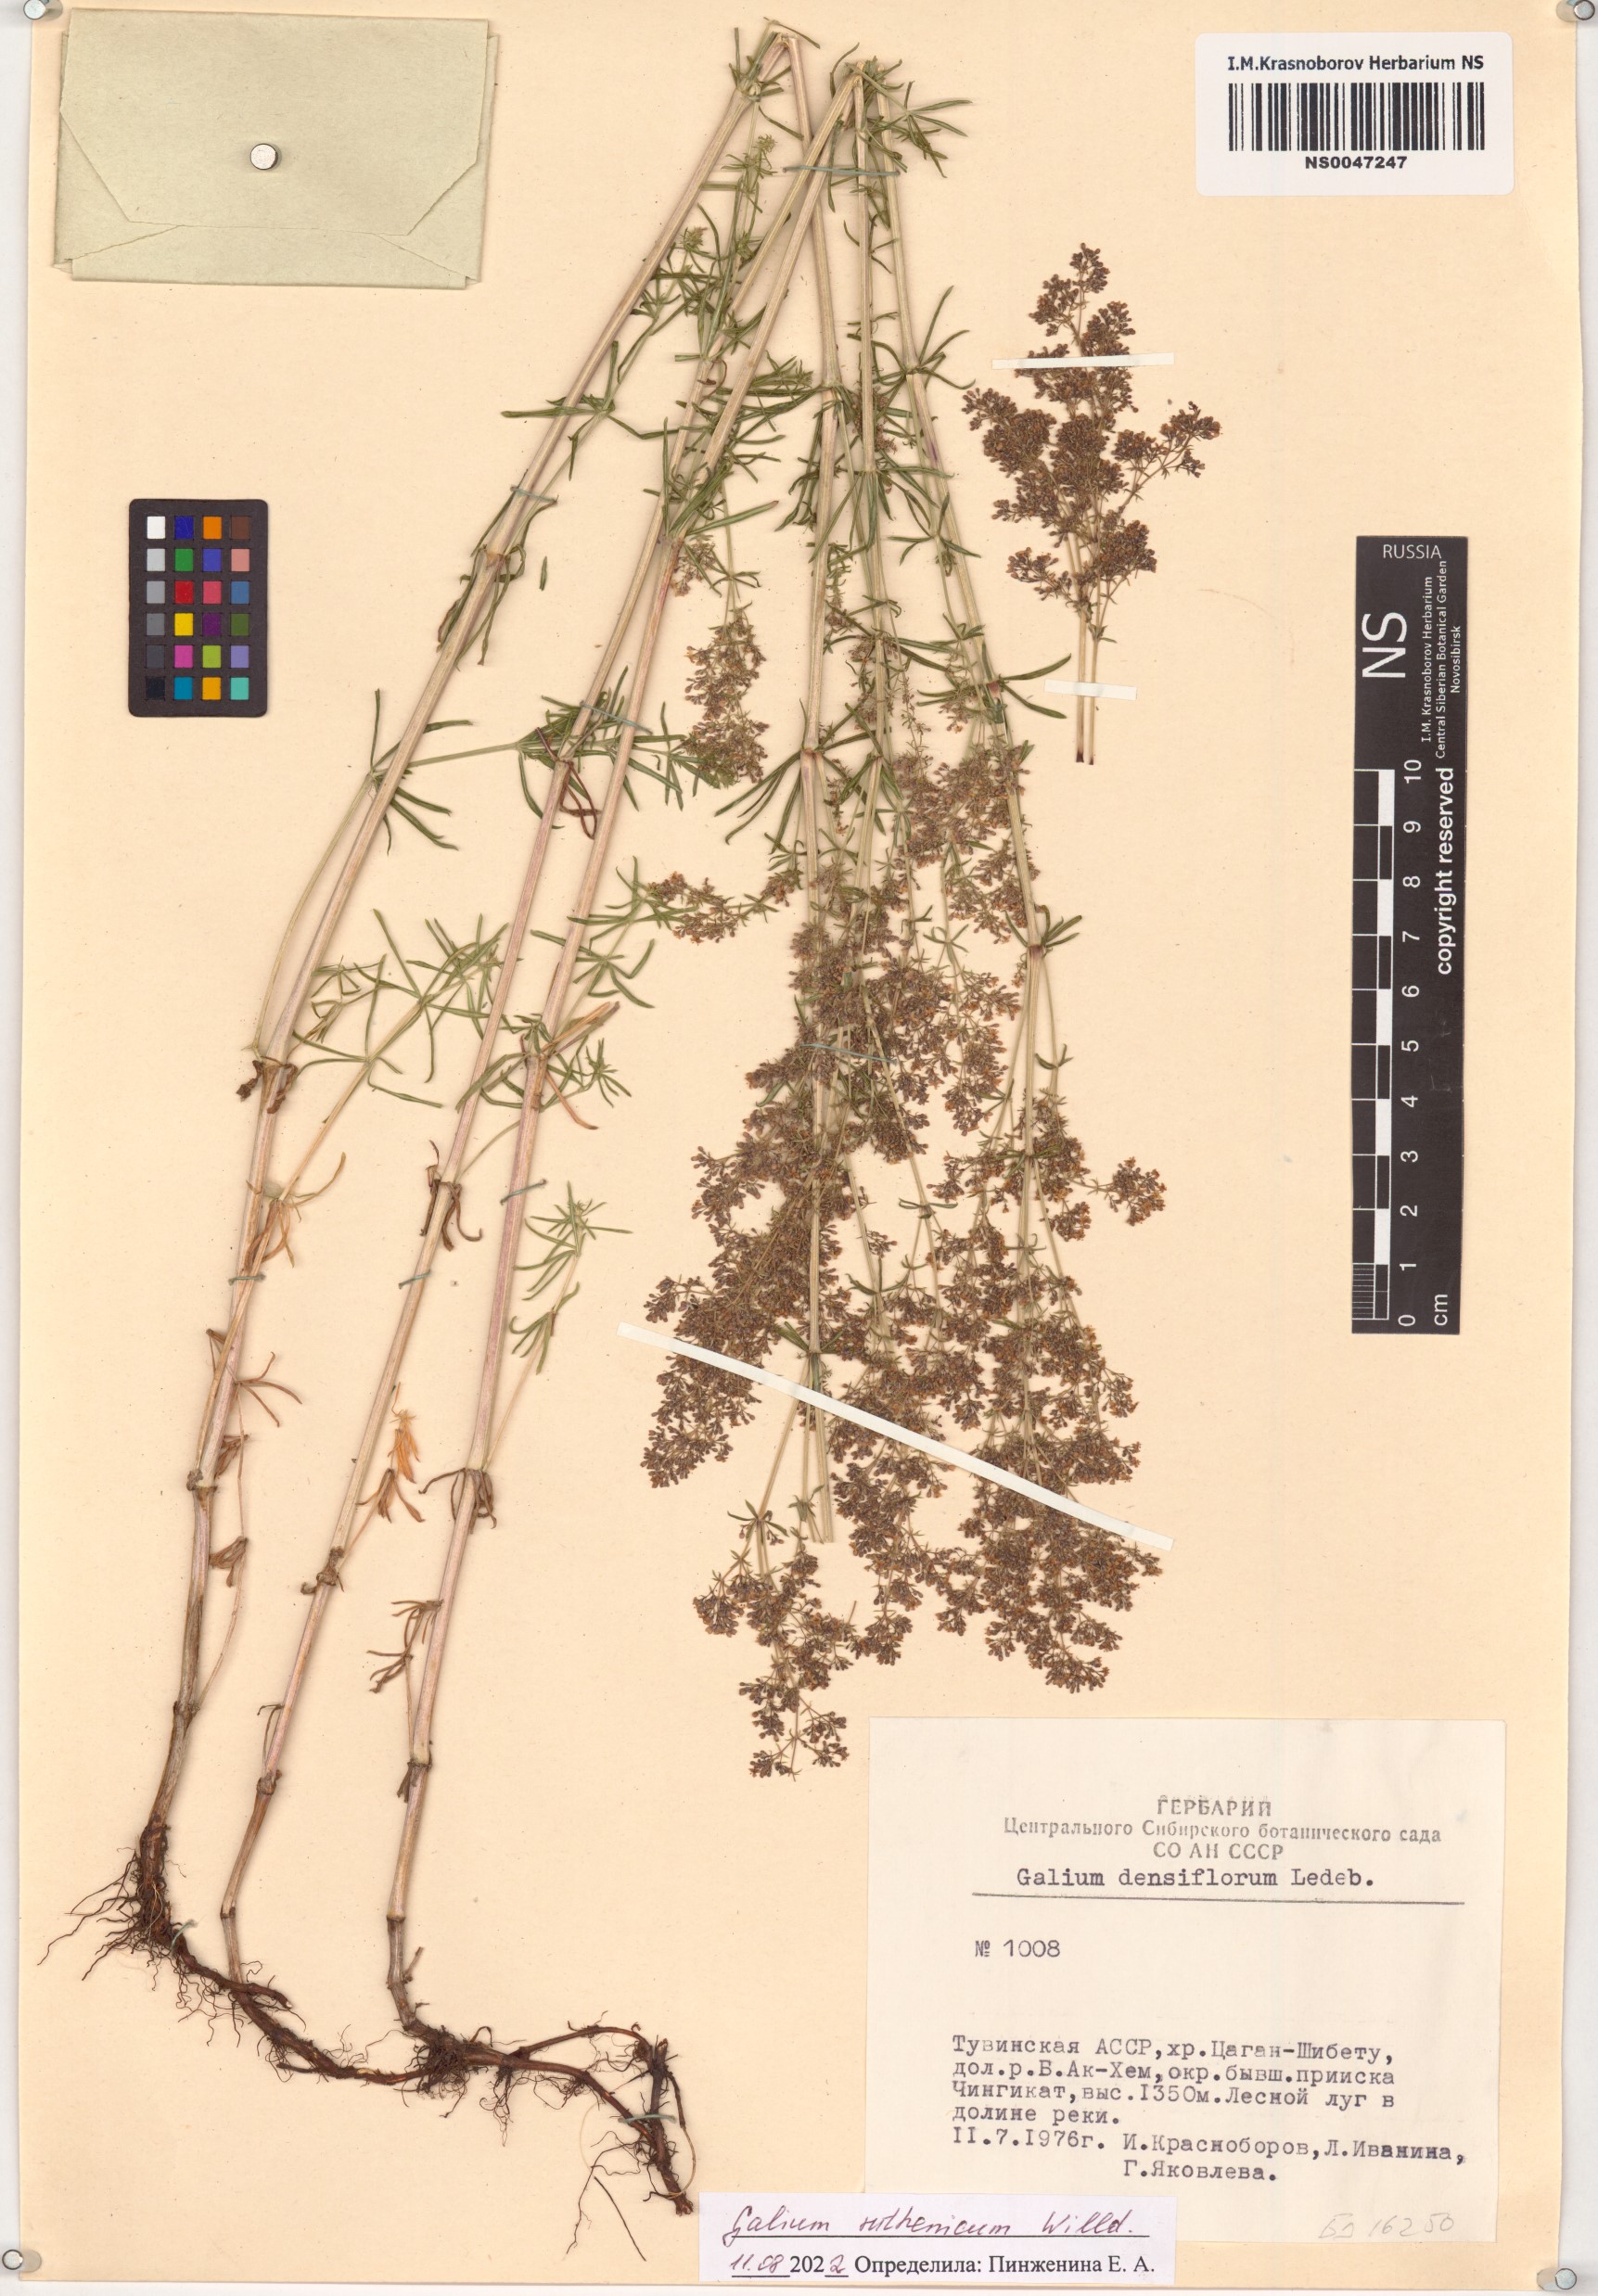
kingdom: Plantae
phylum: Tracheophyta
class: Magnoliopsida
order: Gentianales
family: Rubiaceae
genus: Galium
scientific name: Galium verum
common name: Lady's bedstraw
